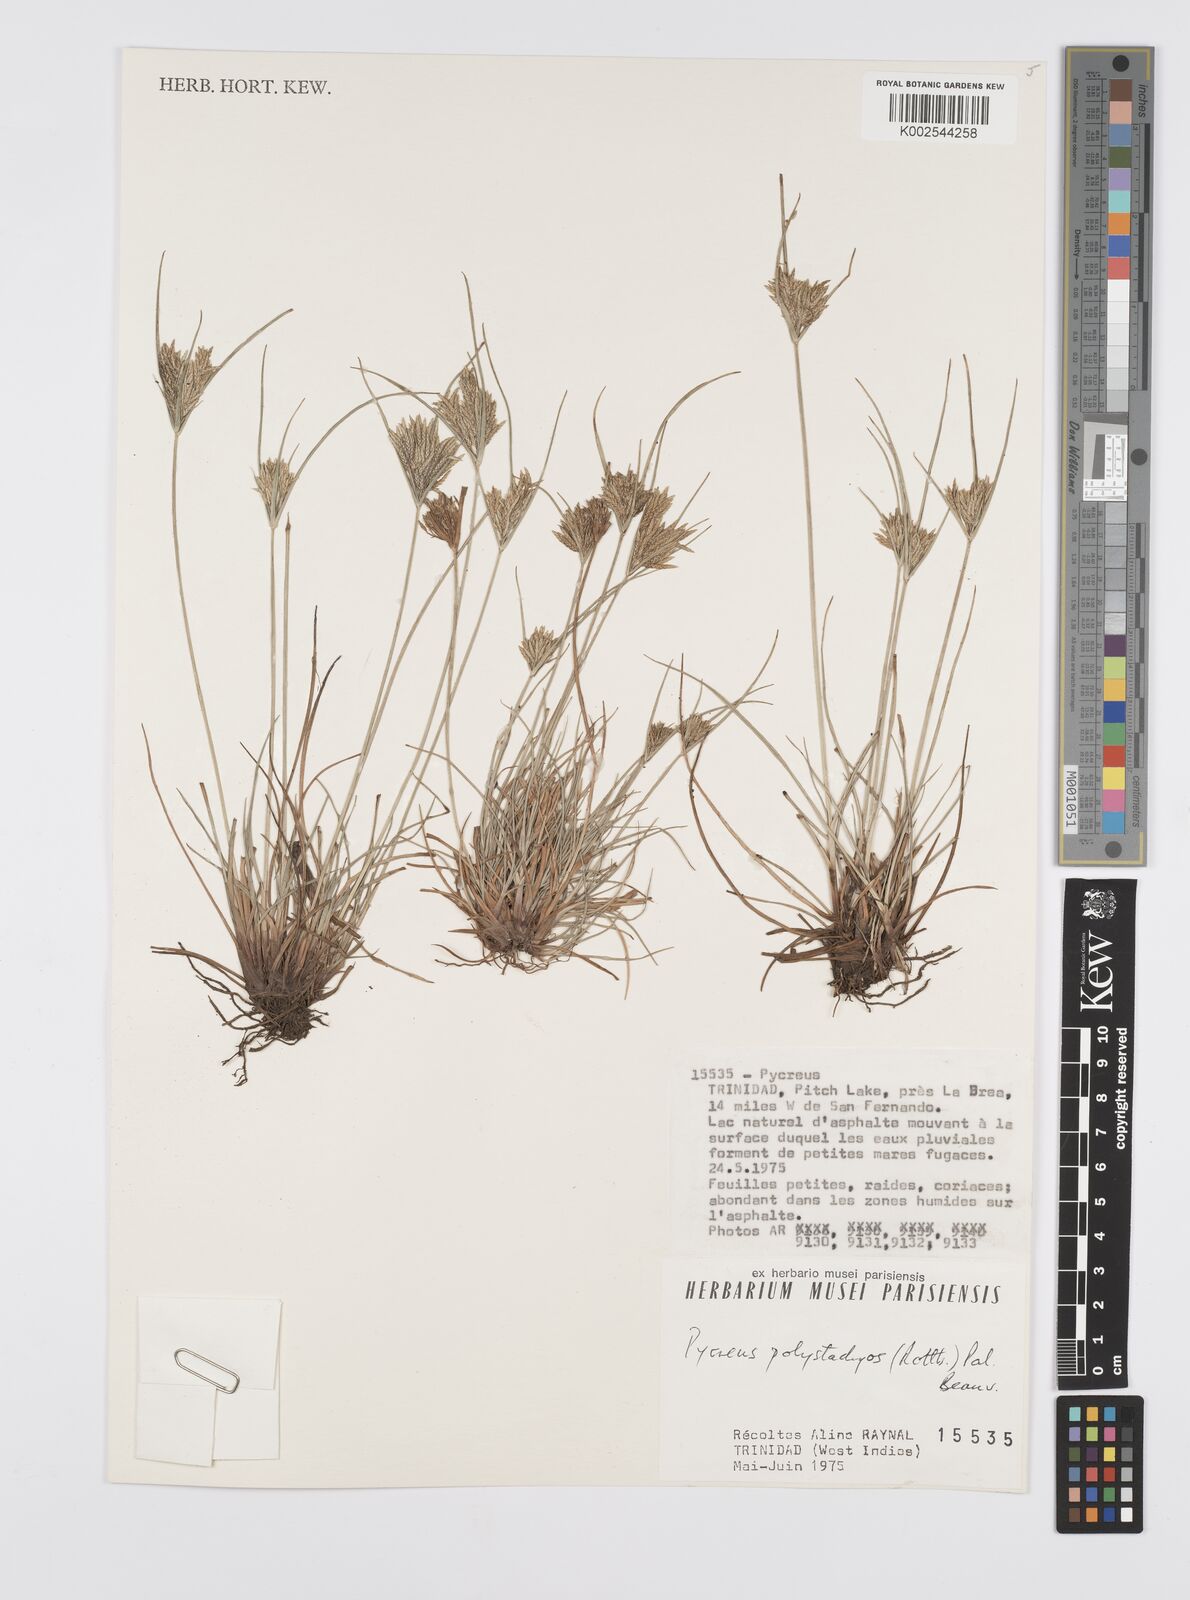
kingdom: Plantae
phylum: Tracheophyta
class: Liliopsida
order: Poales
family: Cyperaceae
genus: Cyperus
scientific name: Cyperus polystachyos
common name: Bunchy flat sedge
